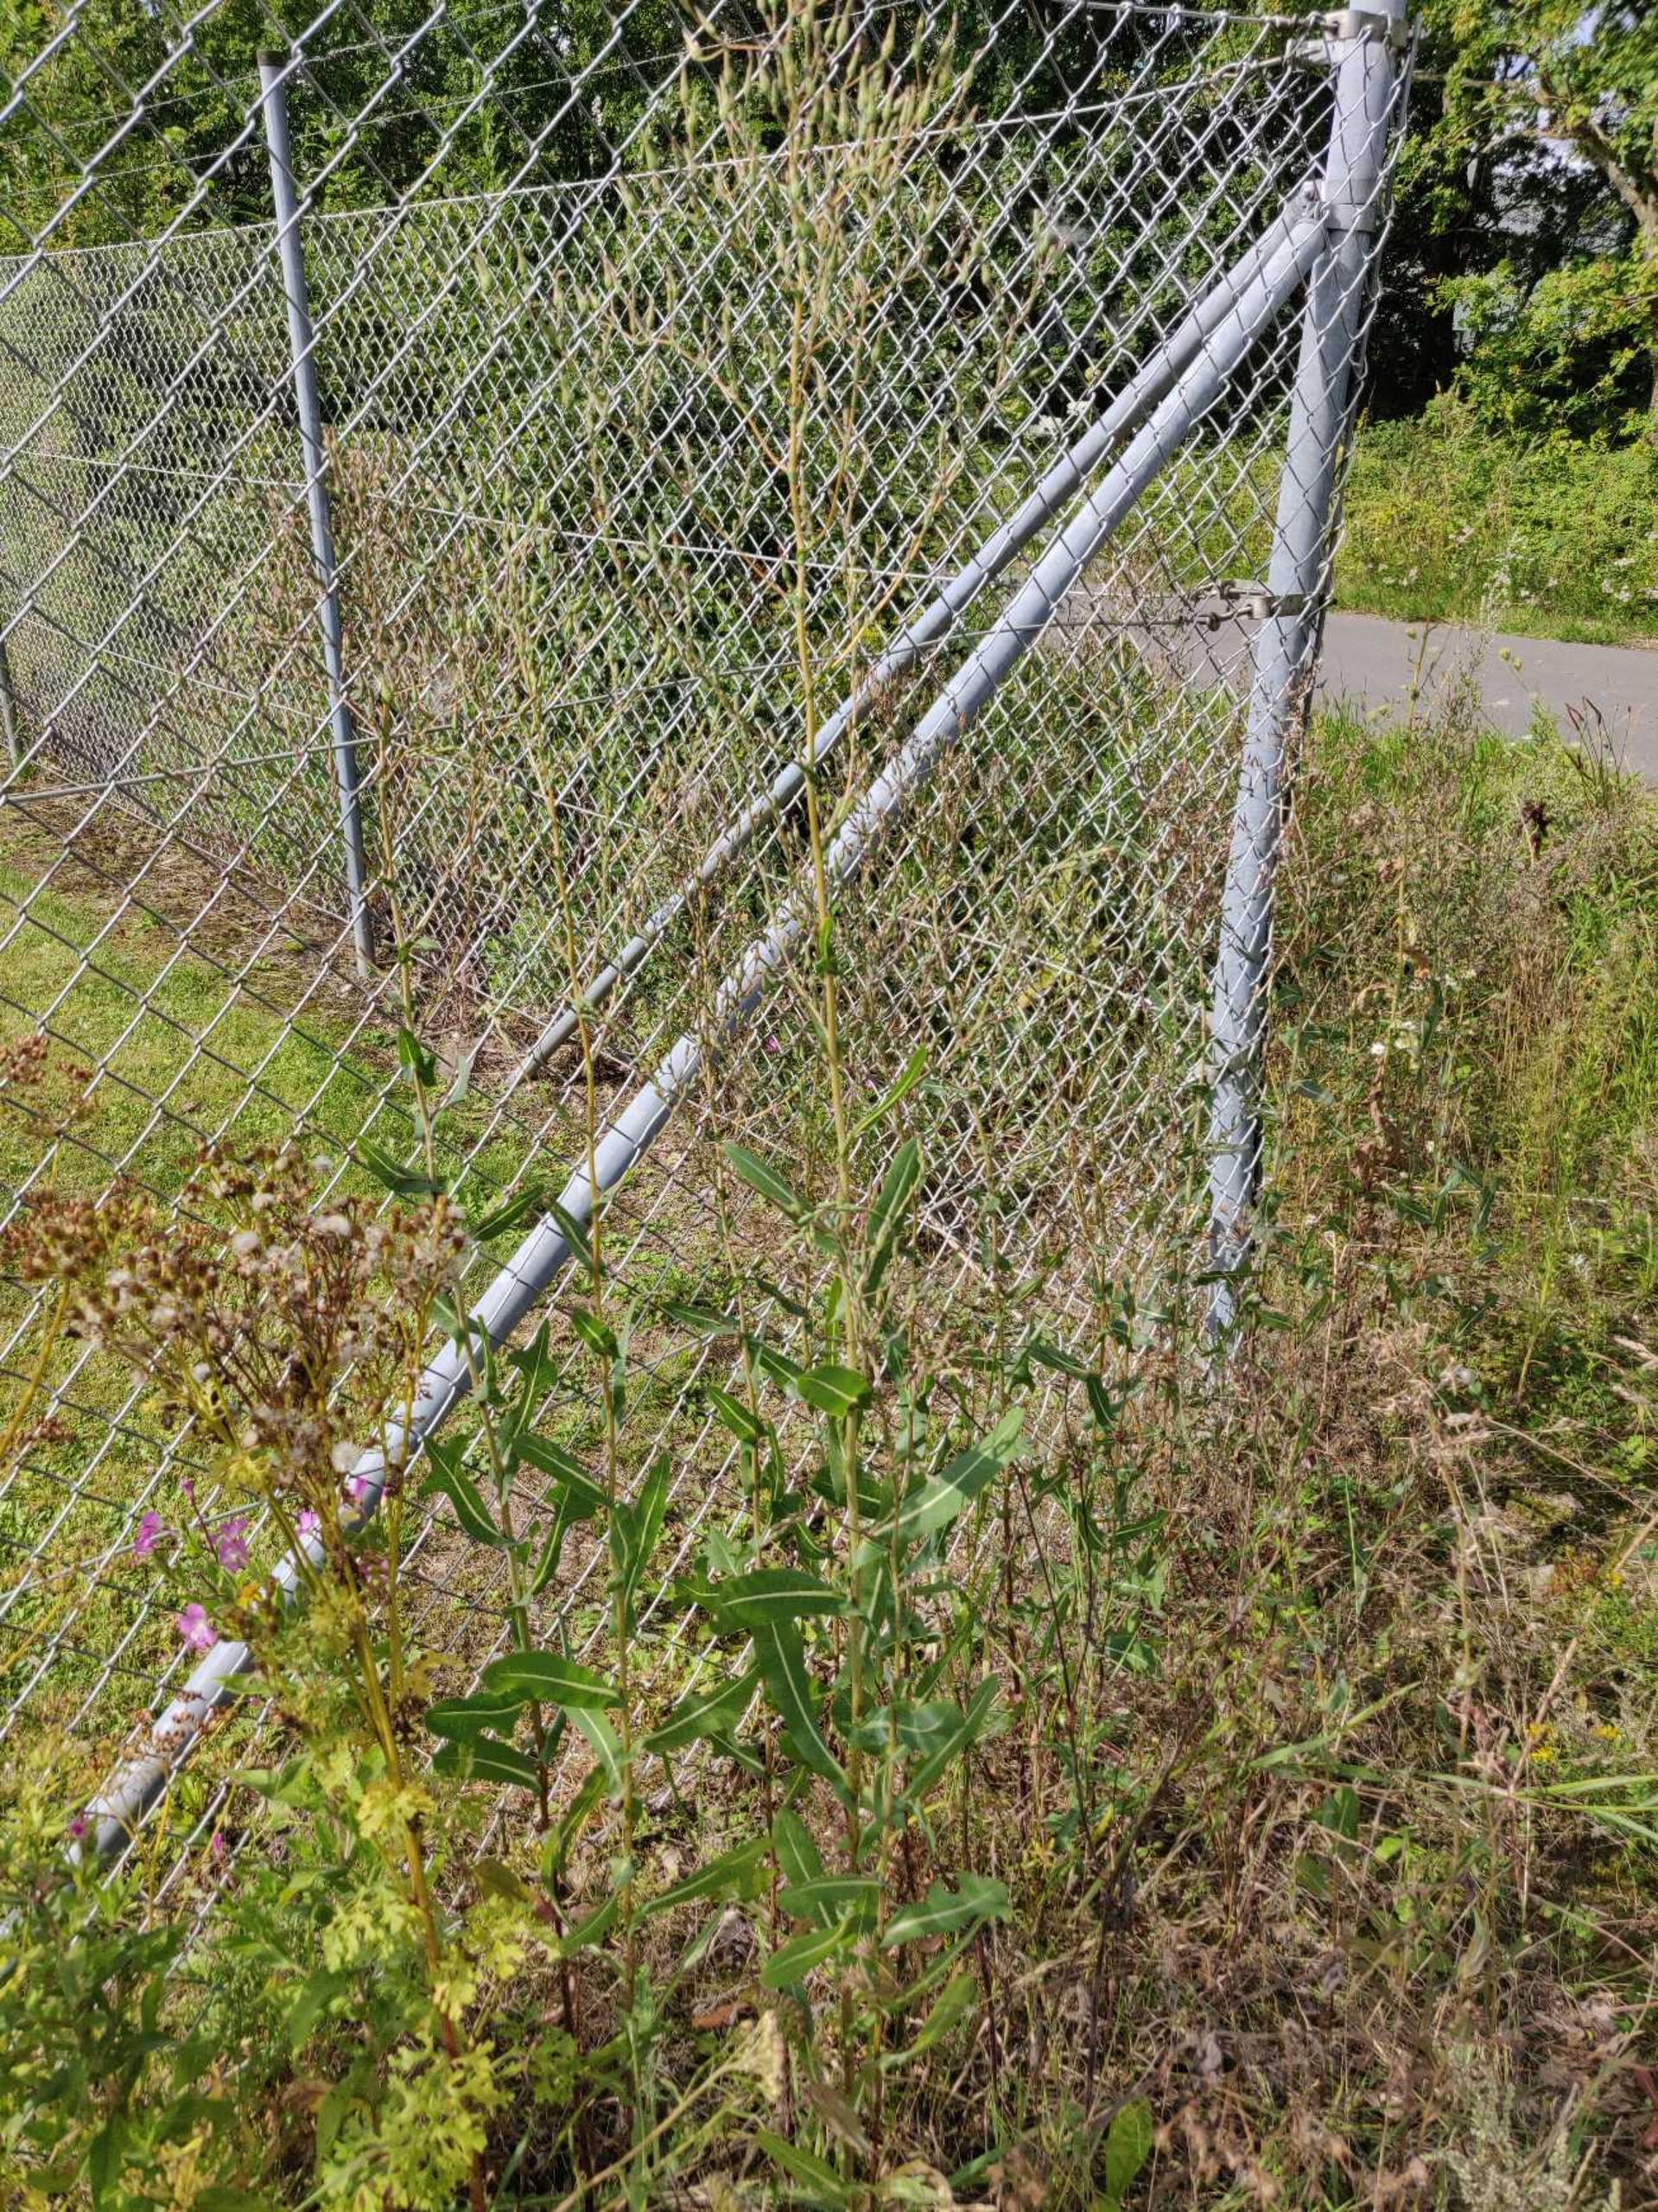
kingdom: Plantae
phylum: Tracheophyta
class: Magnoliopsida
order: Asterales
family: Asteraceae
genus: Lactuca
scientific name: Lactuca serriola
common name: Tornet salat
